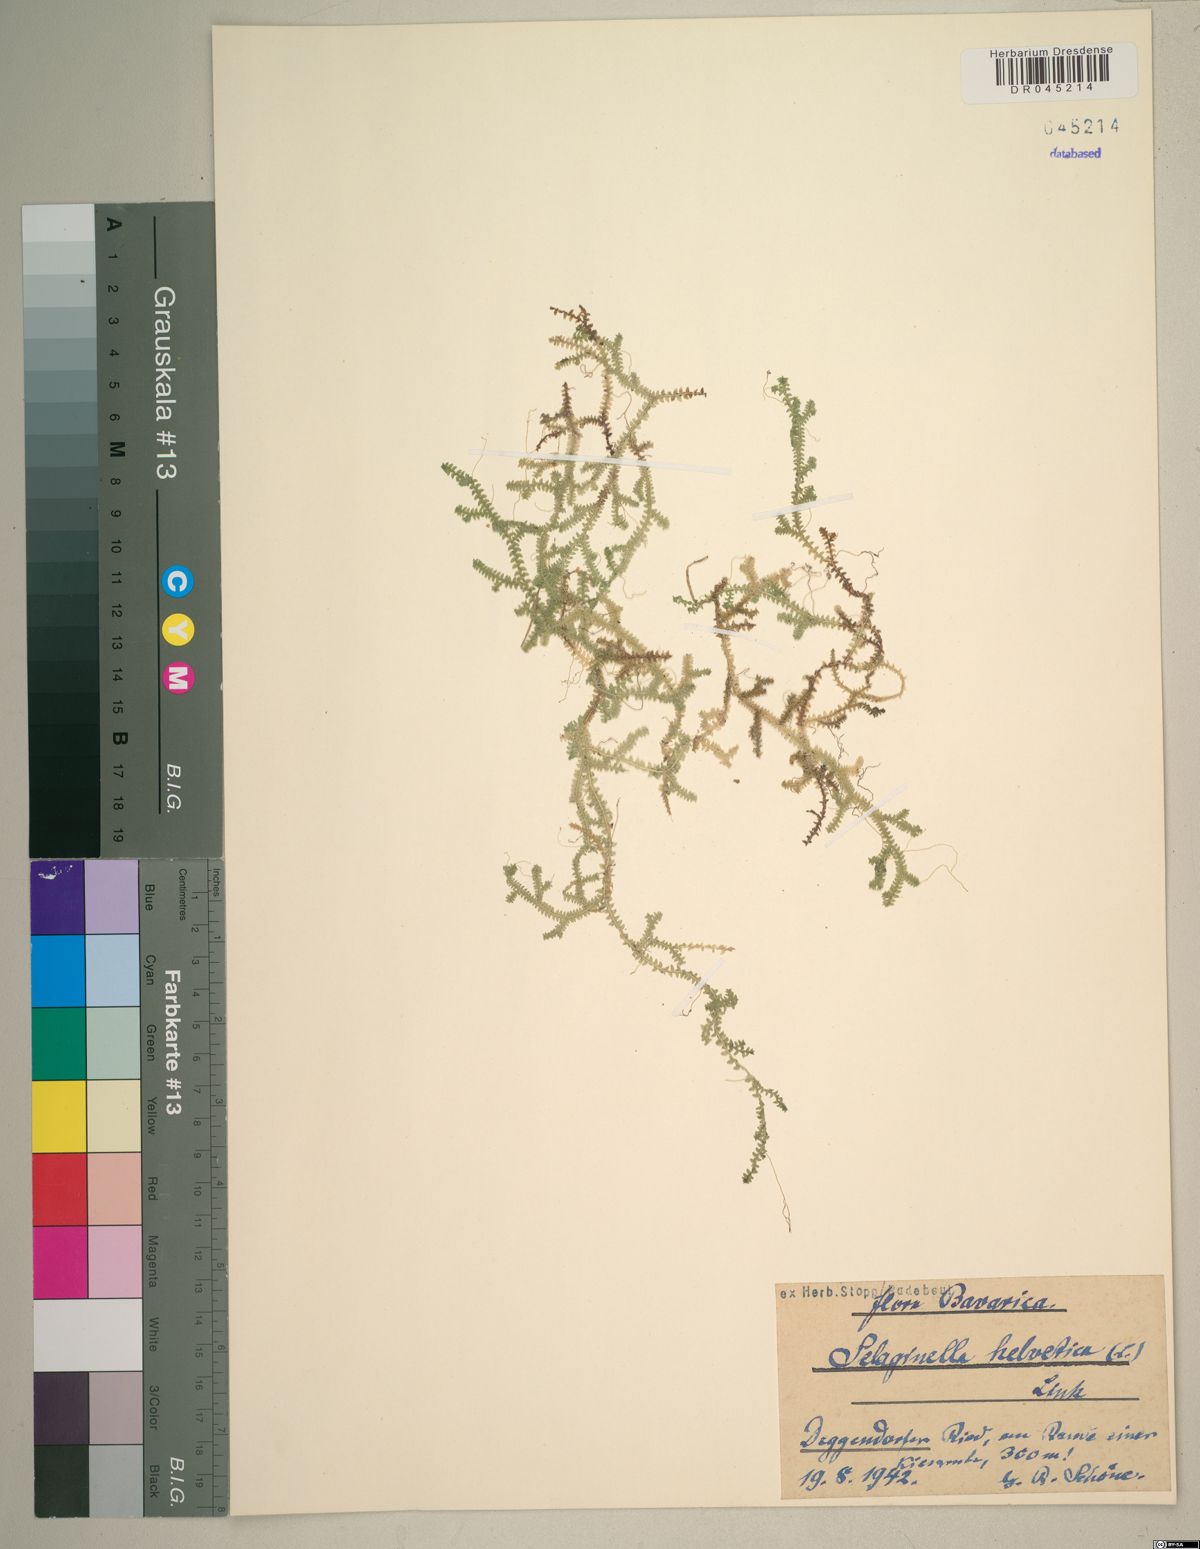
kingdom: Plantae
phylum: Tracheophyta
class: Lycopodiopsida
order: Selaginellales
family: Selaginellaceae
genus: Selaginella
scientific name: Selaginella helvetica
